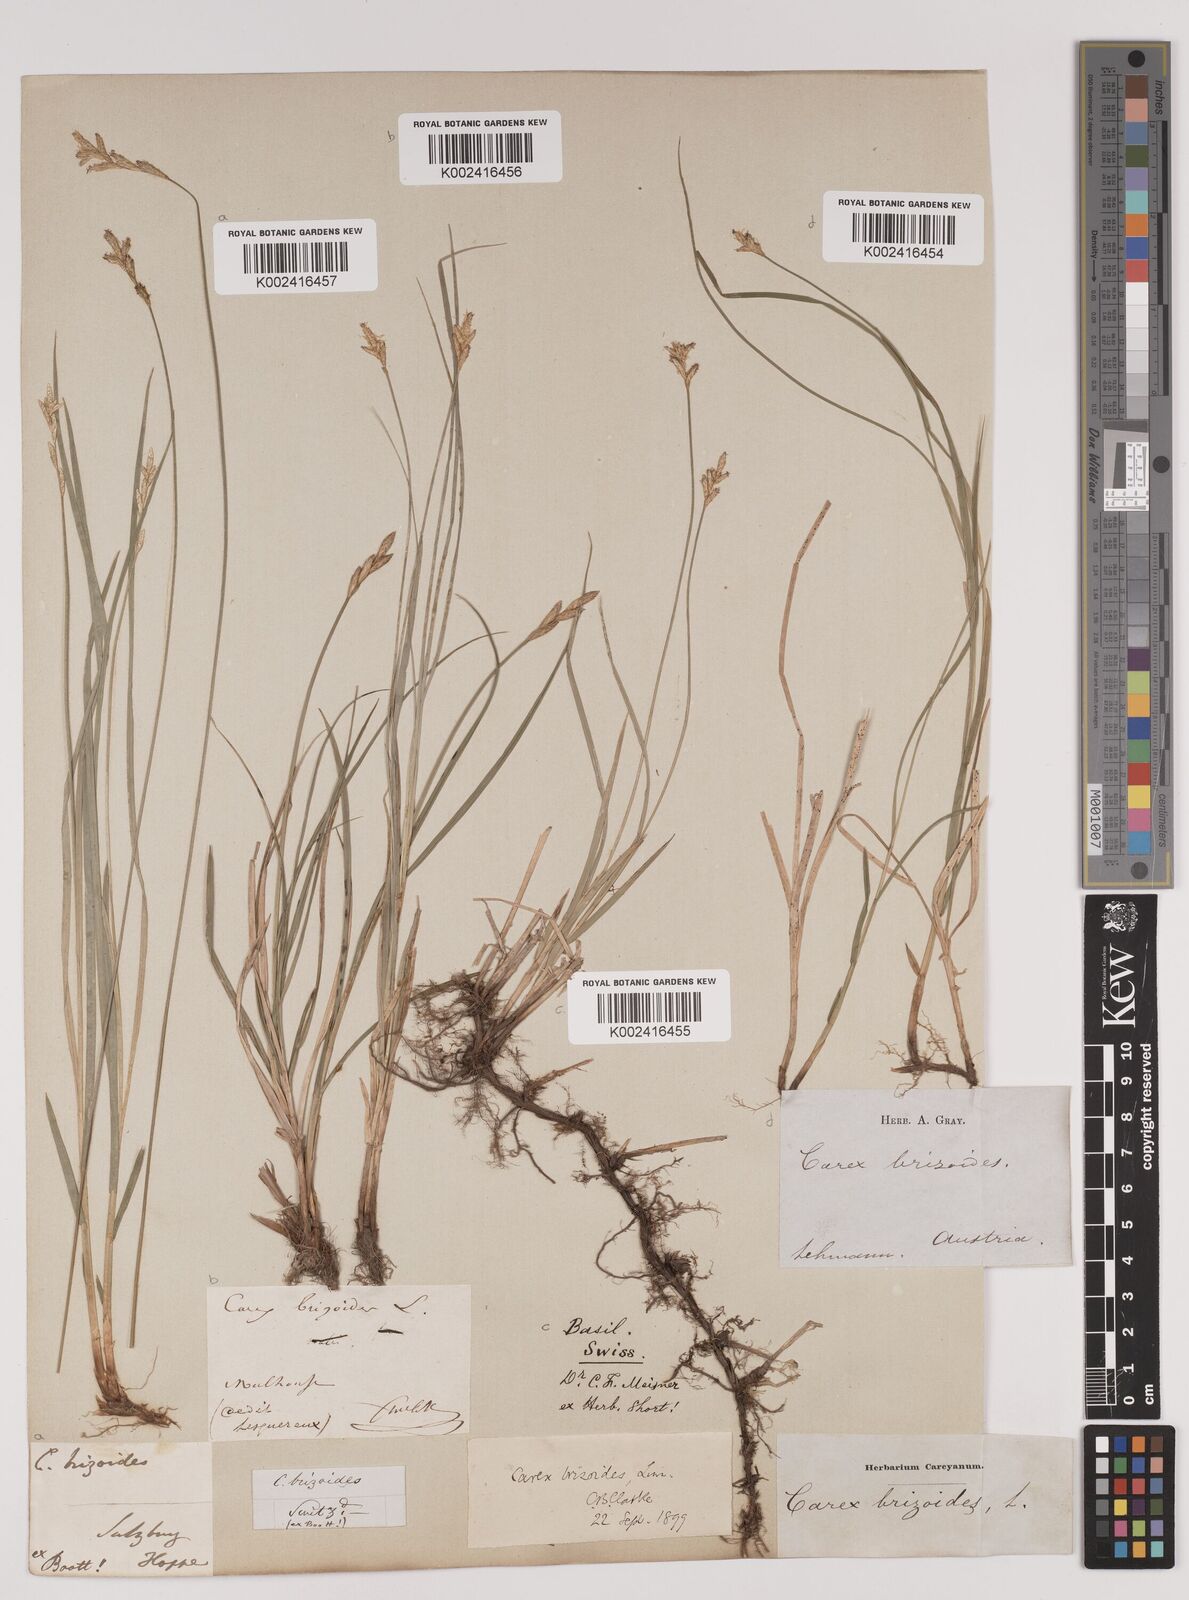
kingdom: Plantae
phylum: Tracheophyta
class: Liliopsida
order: Poales
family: Cyperaceae
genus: Carex
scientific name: Carex brizoides
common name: Quaking-grass sedge
